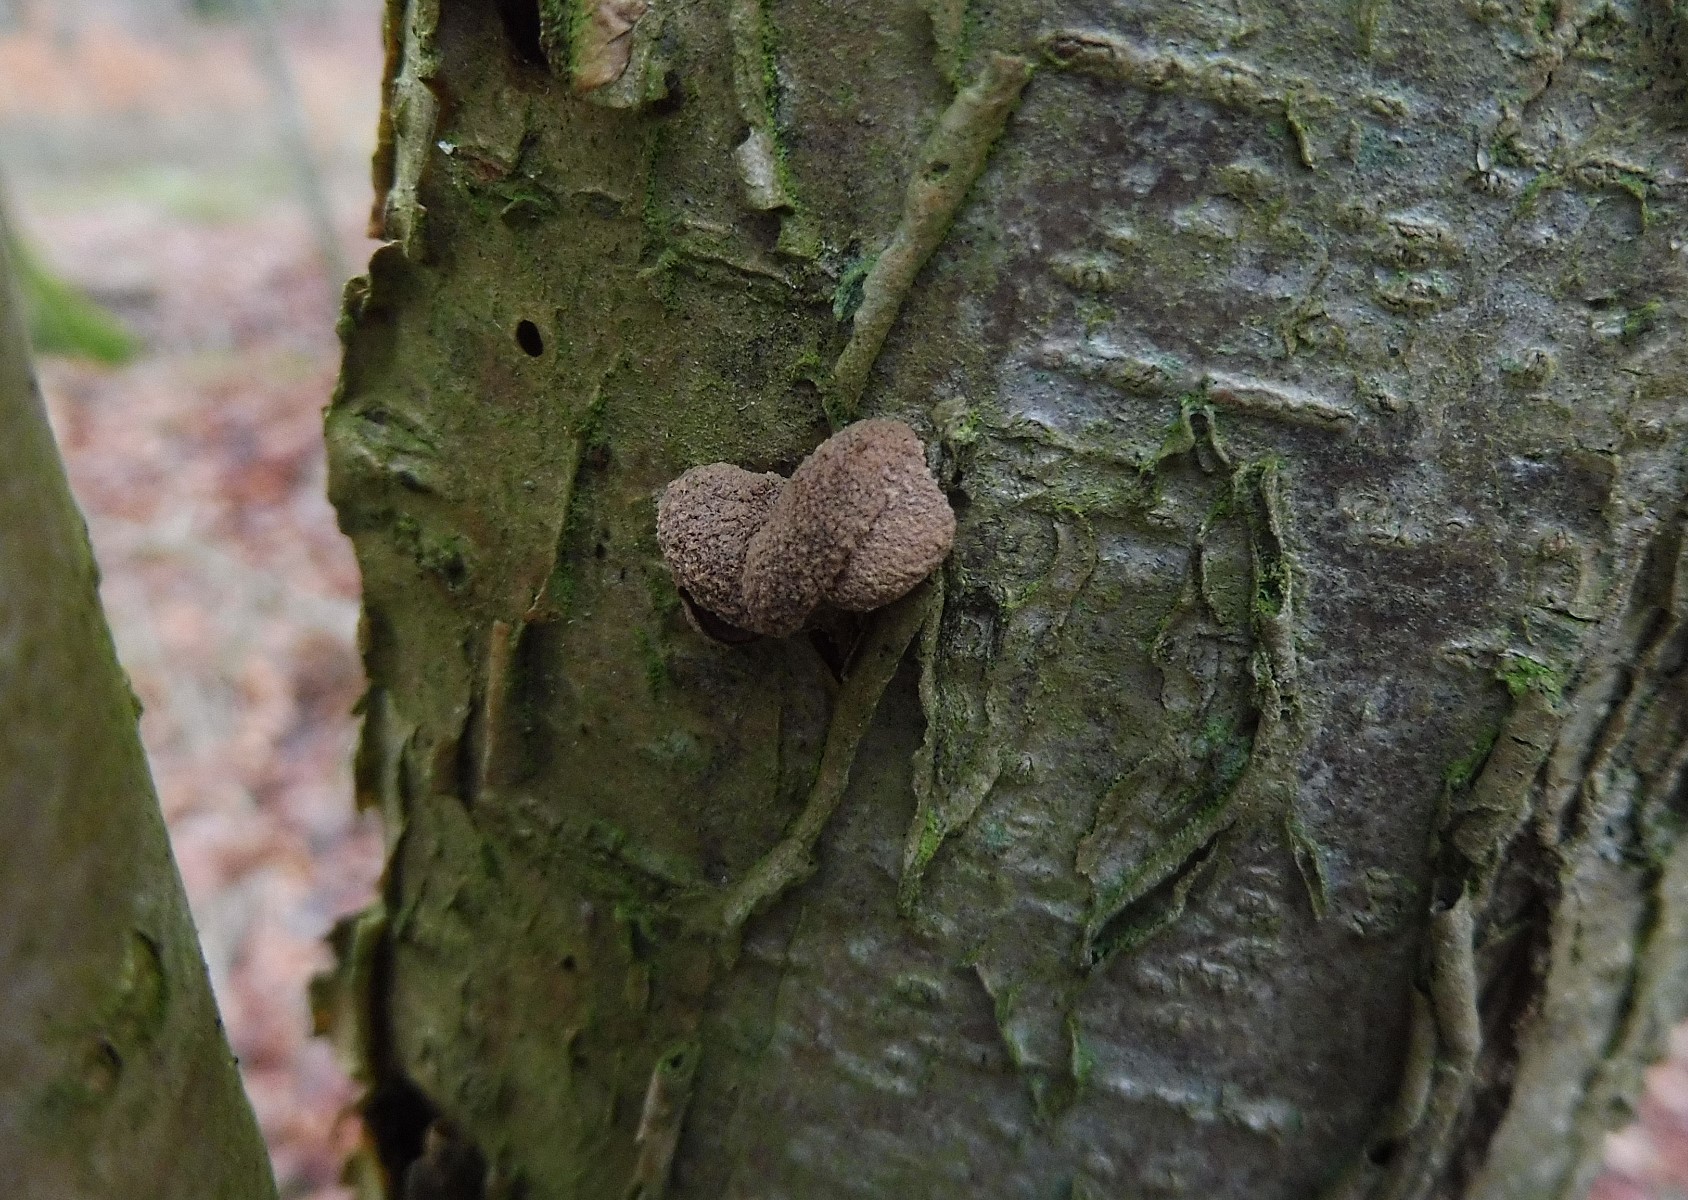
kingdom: Fungi
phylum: Ascomycota
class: Leotiomycetes
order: Helotiales
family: Cenangiaceae
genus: Encoelia
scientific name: Encoelia furfuracea
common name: hassel-læderskive
